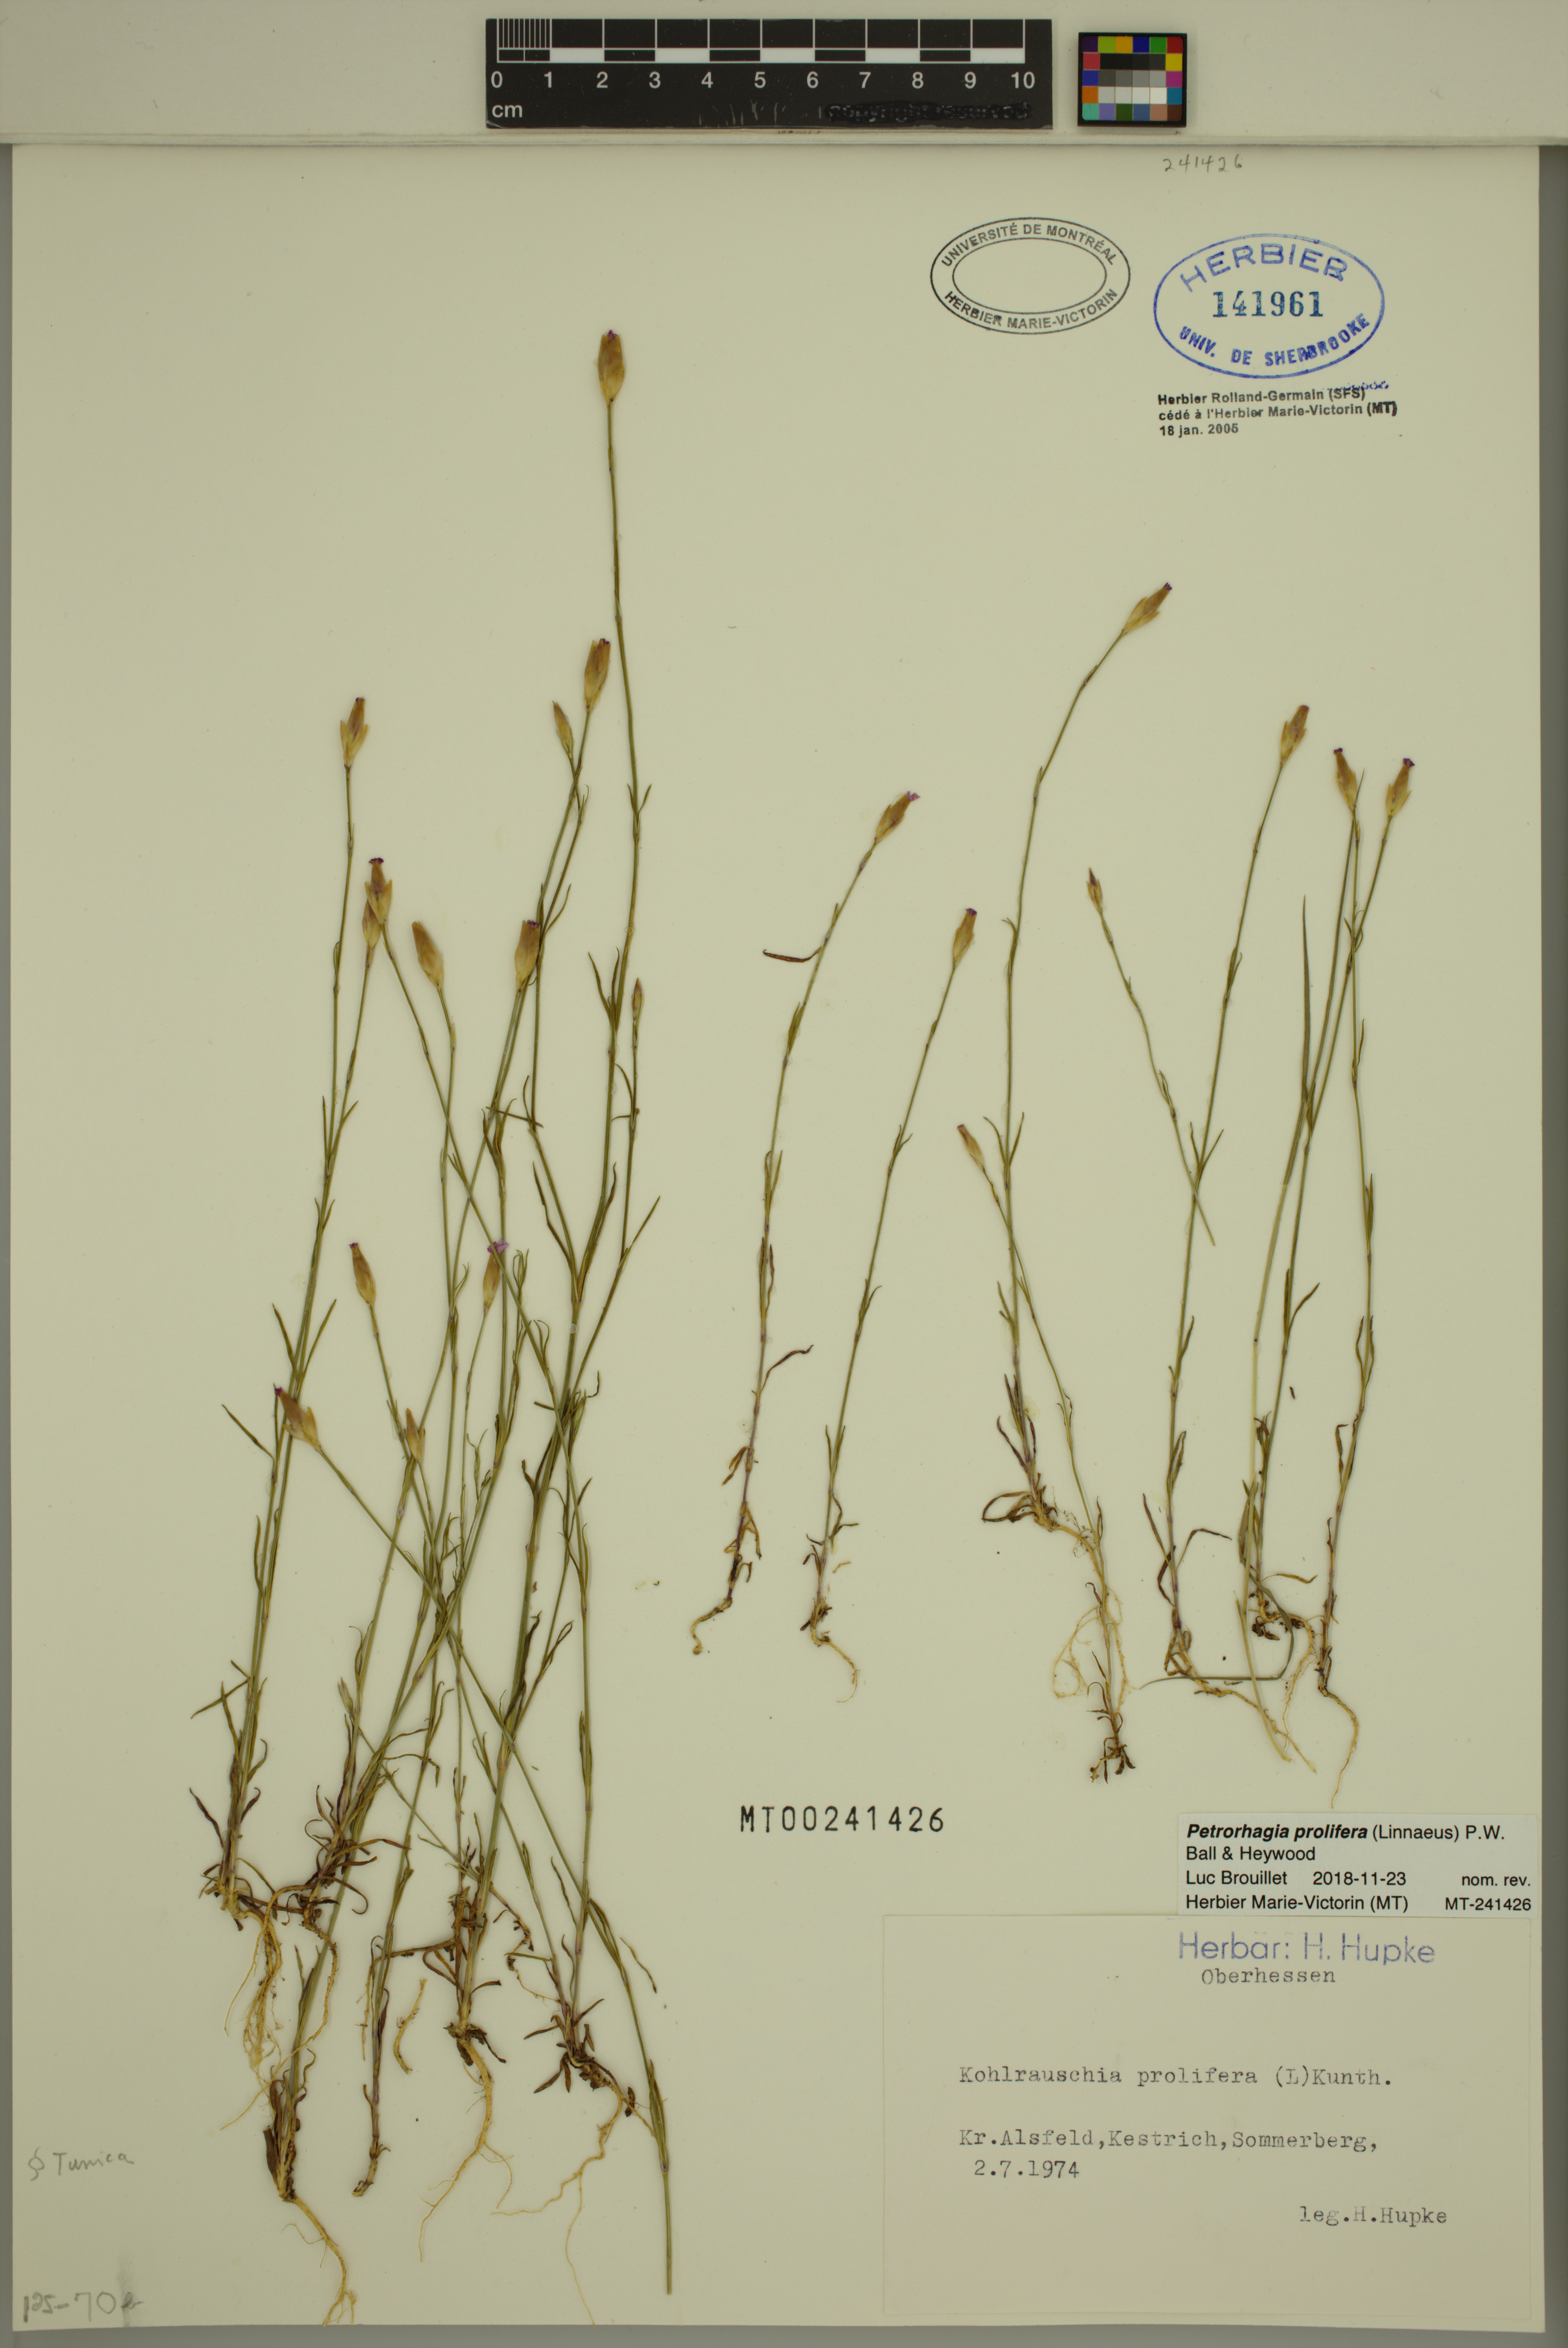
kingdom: Plantae
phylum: Tracheophyta
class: Magnoliopsida
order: Caryophyllales
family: Caryophyllaceae
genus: Petrorhagia
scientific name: Petrorhagia prolifera
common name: Proliferous pink
